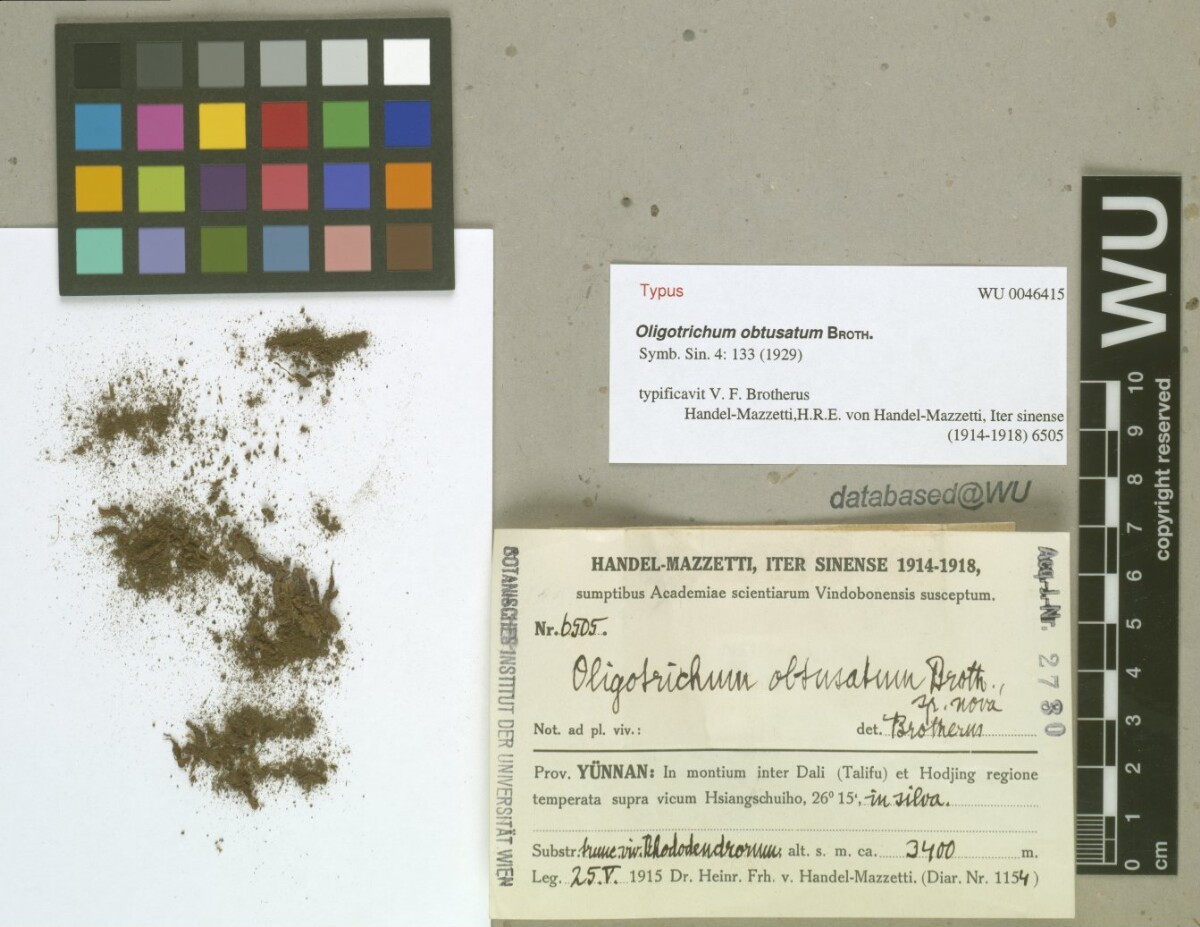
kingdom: Plantae
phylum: Bryophyta
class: Polytrichopsida
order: Polytrichales
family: Polytrichaceae
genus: Oligotrichum
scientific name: Oligotrichum obtusatum
